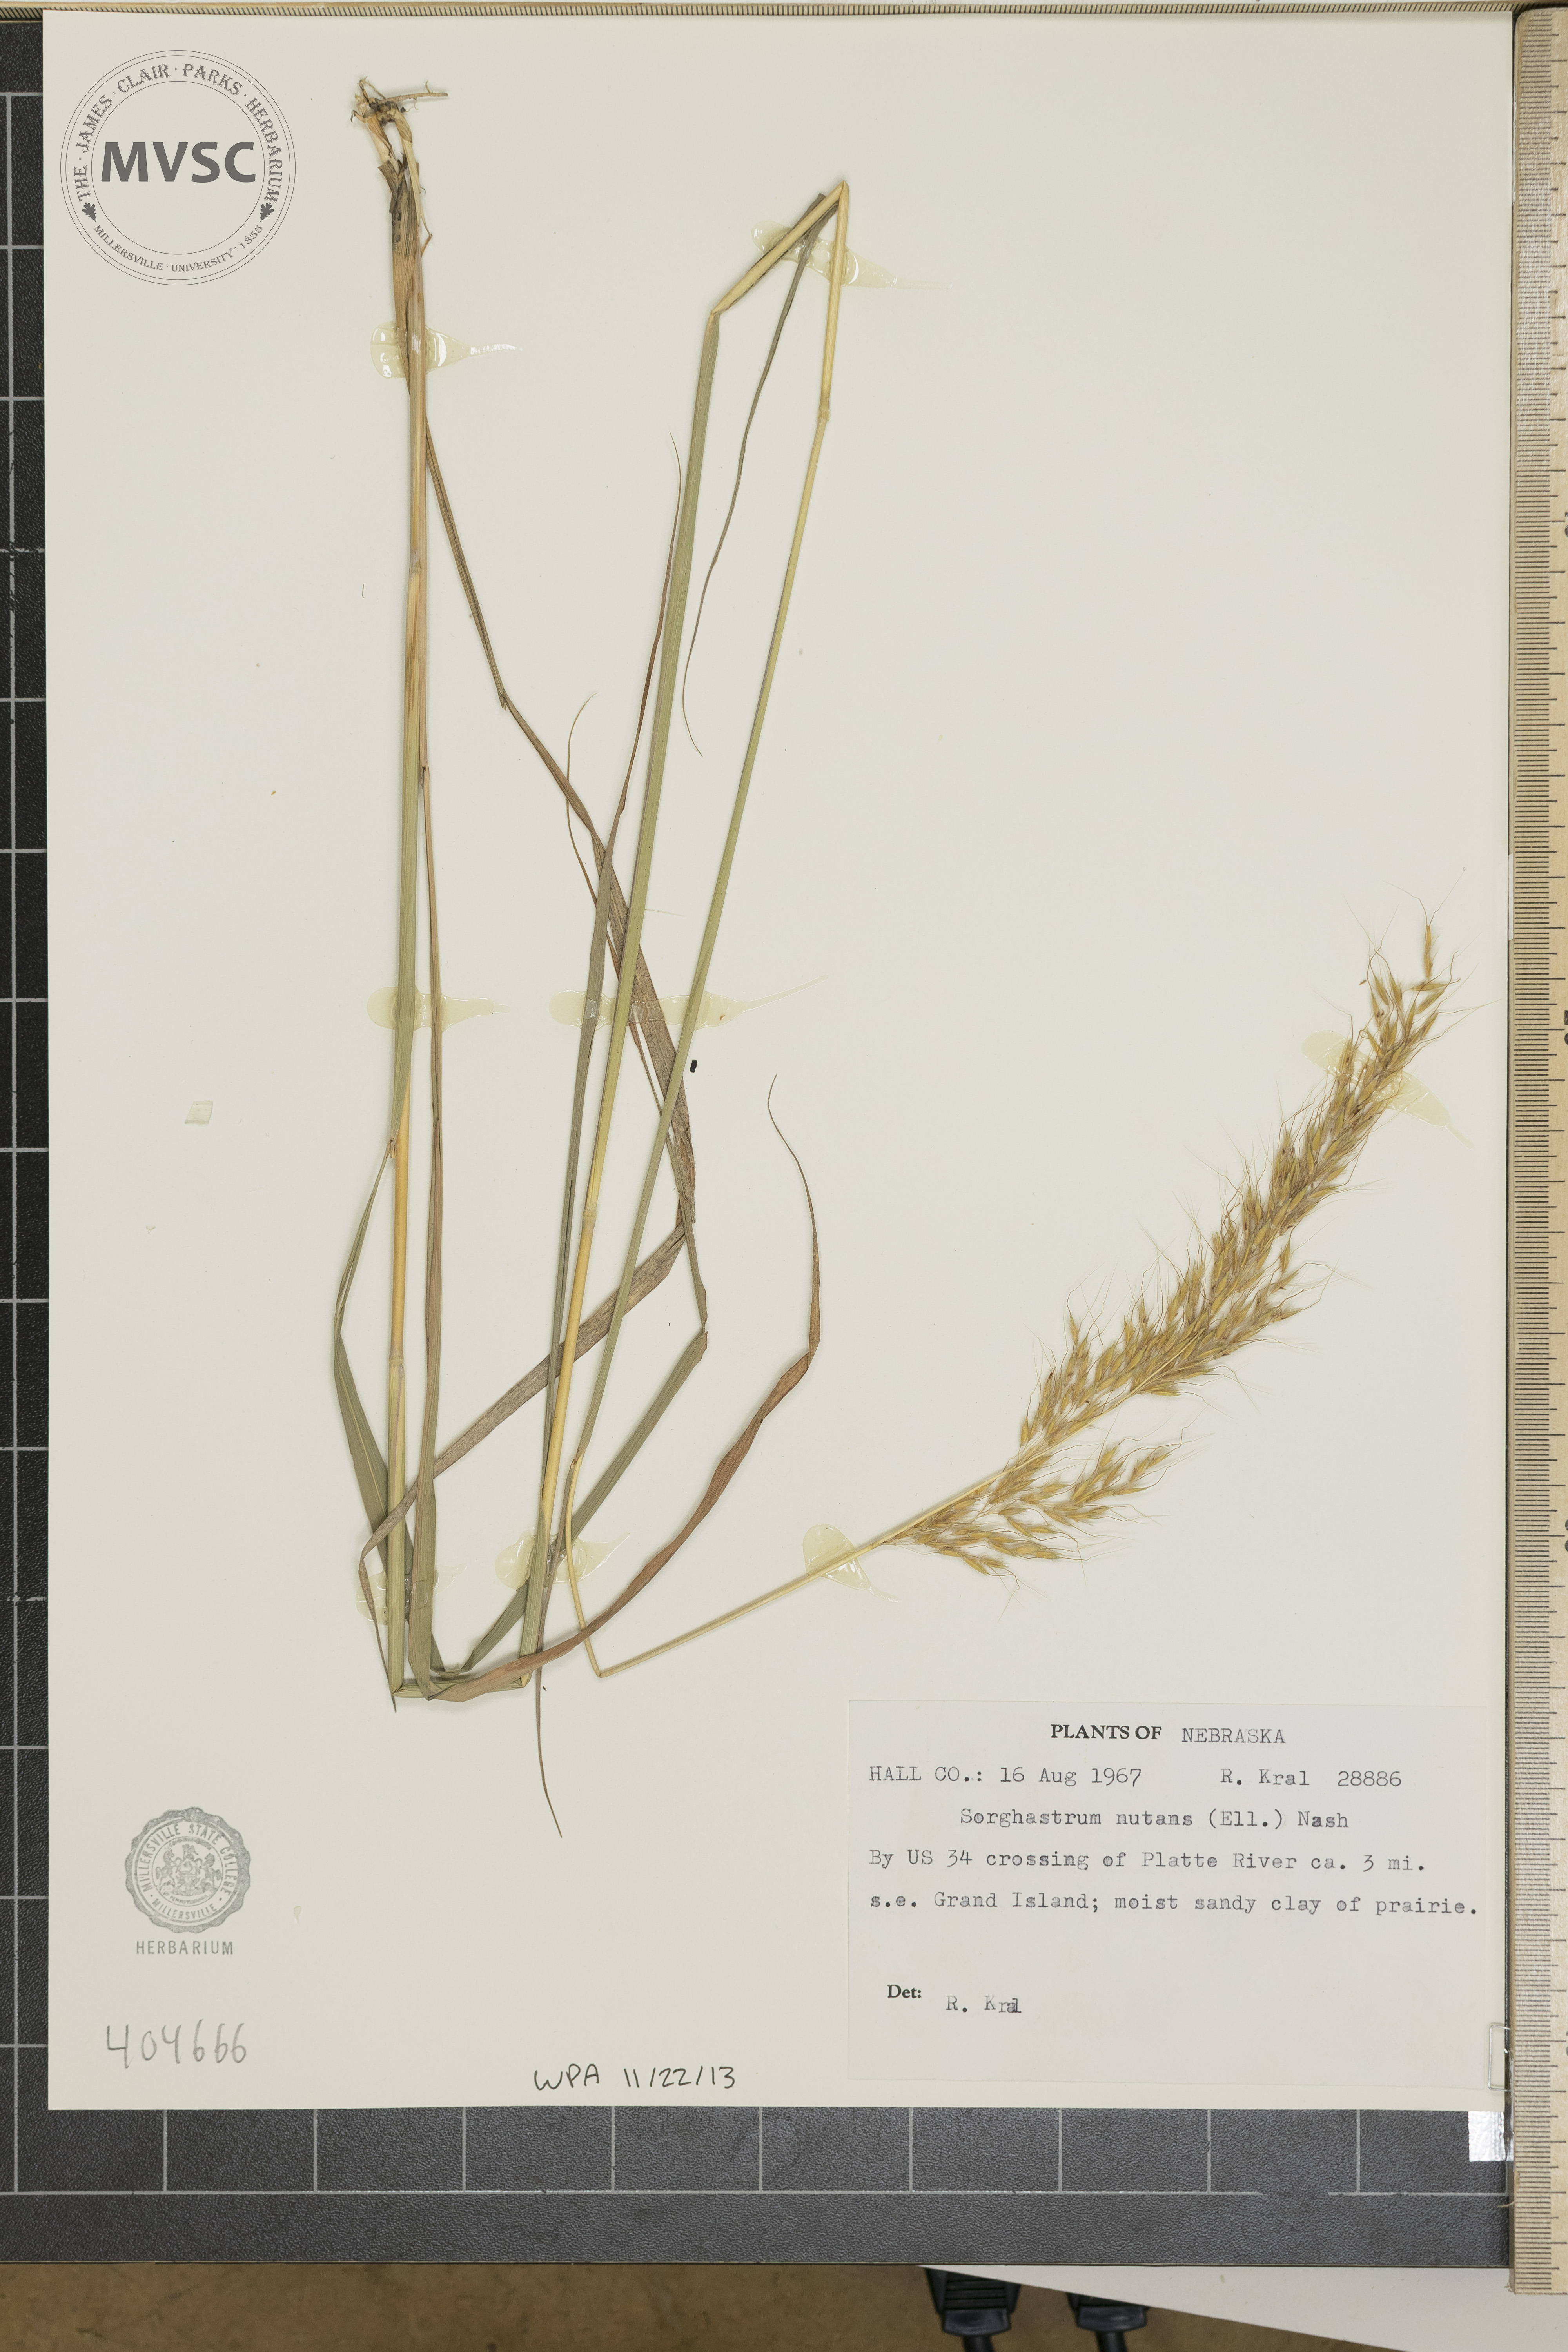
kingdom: Plantae
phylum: Tracheophyta
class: Liliopsida
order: Poales
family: Poaceae
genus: Sorghastrum
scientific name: Sorghastrum nutans
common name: Indian grass
